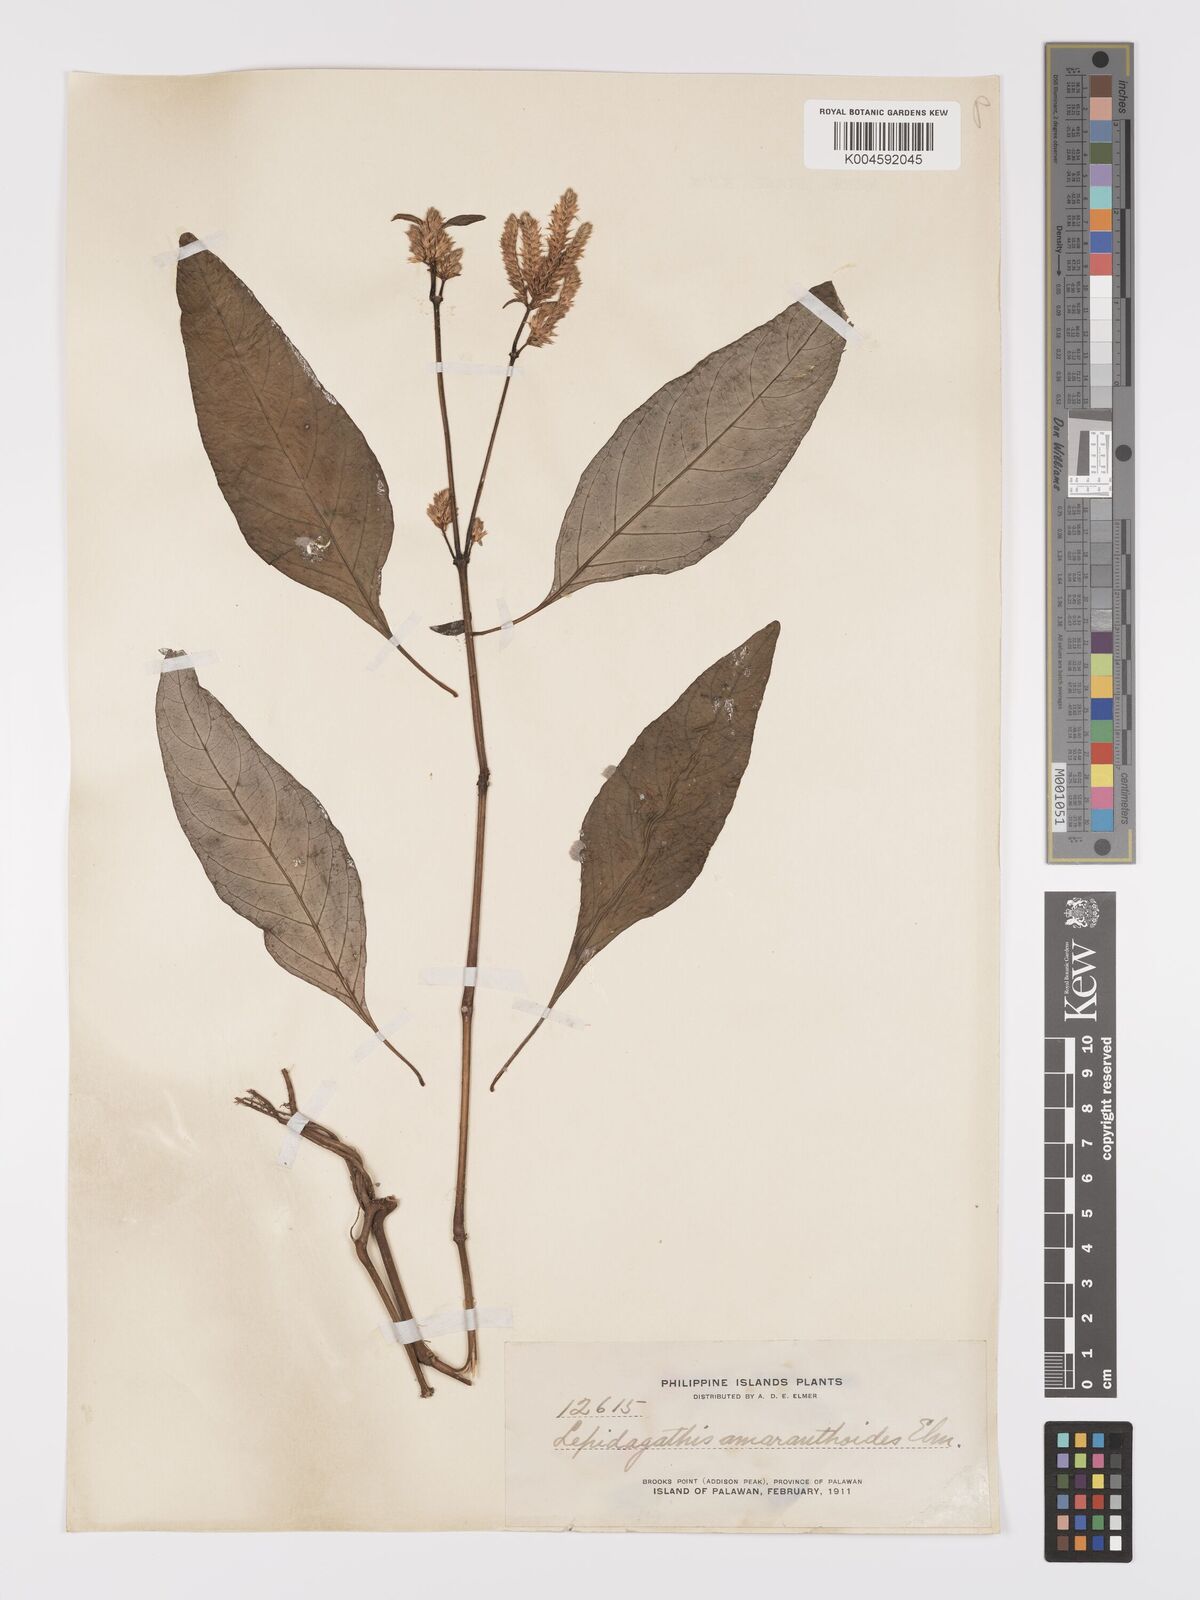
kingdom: Plantae
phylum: Tracheophyta
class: Magnoliopsida
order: Lamiales
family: Acanthaceae
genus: Lepidagathis
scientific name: Lepidagathis amaranthoides
